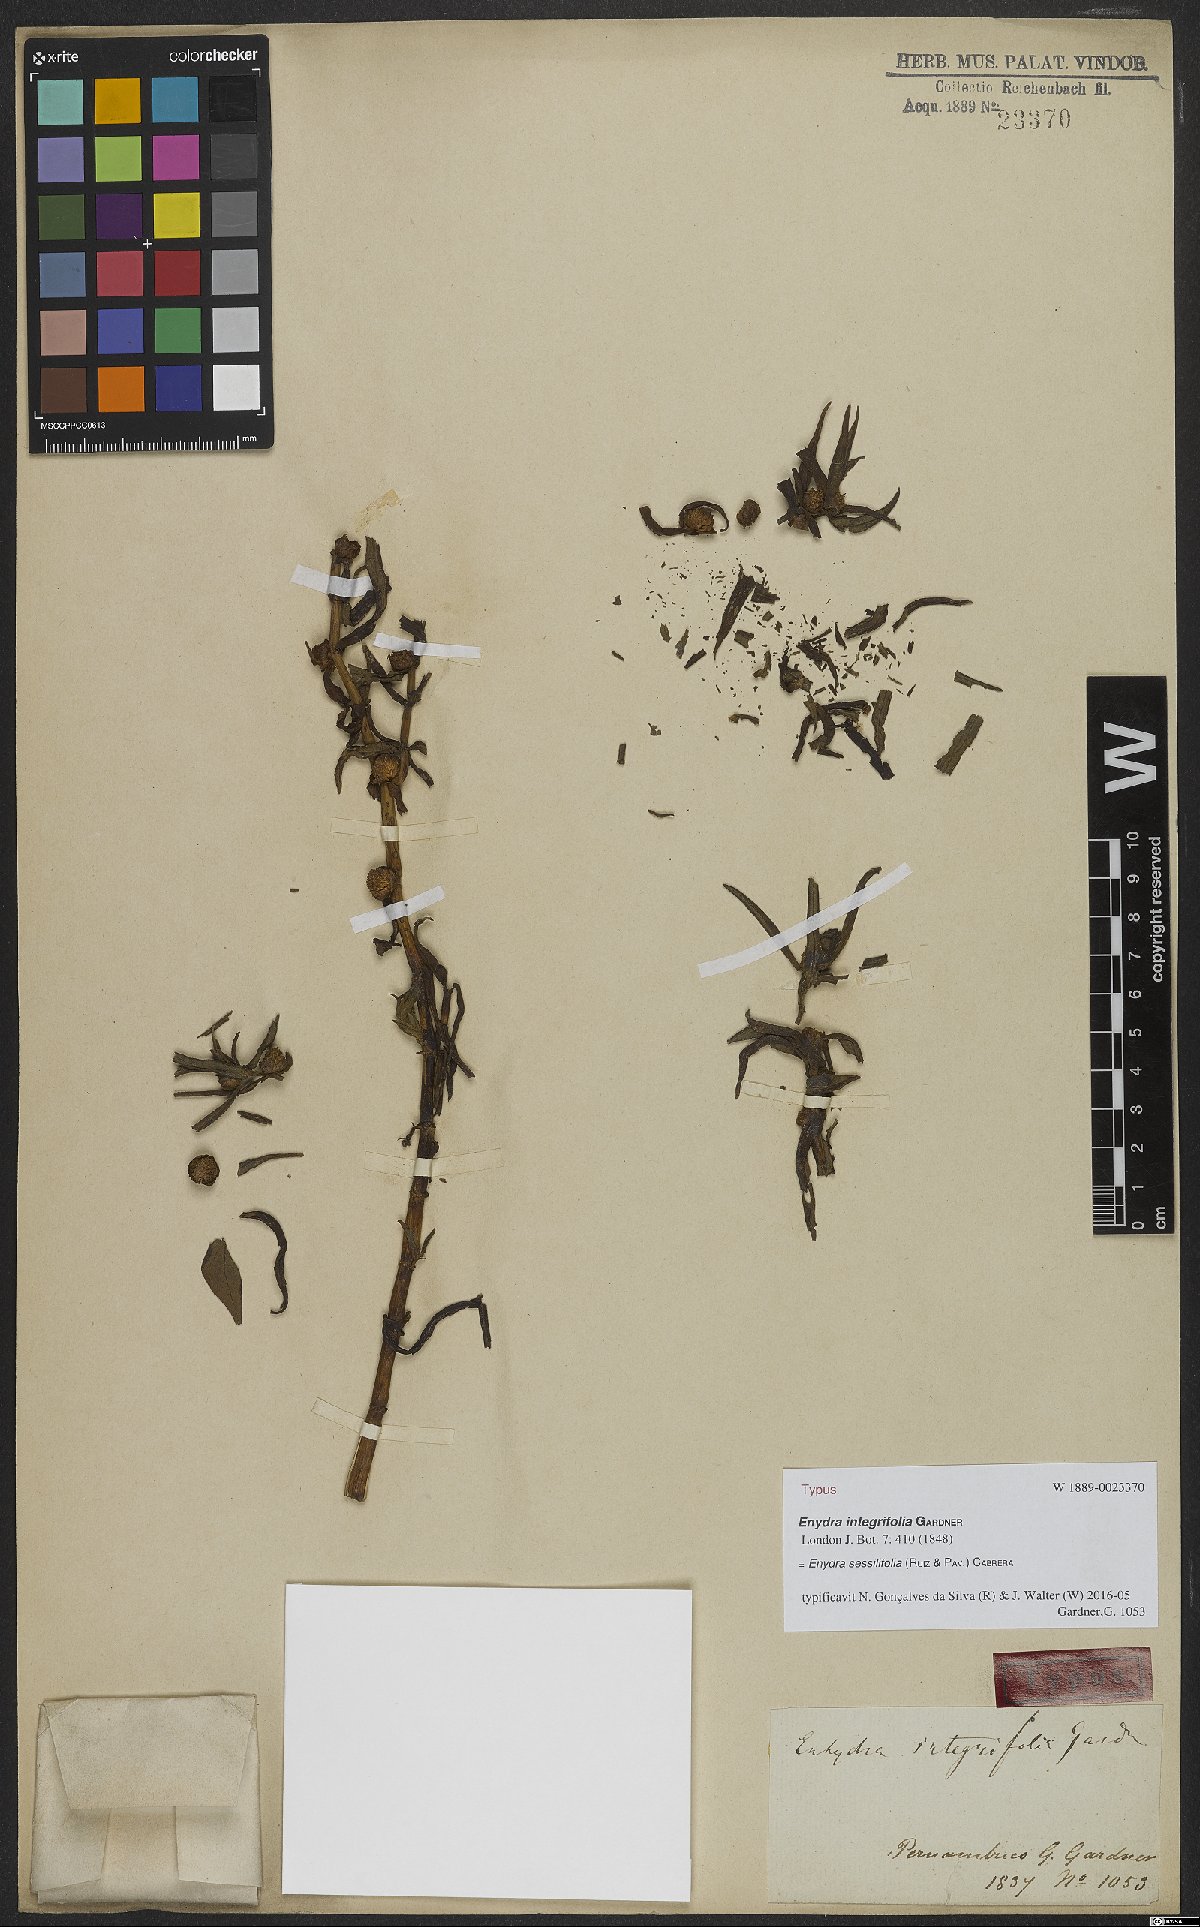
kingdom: Plantae
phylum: Tracheophyta
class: Magnoliopsida
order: Asterales
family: Asteraceae
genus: Enydra
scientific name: Enydra sessilifolia
